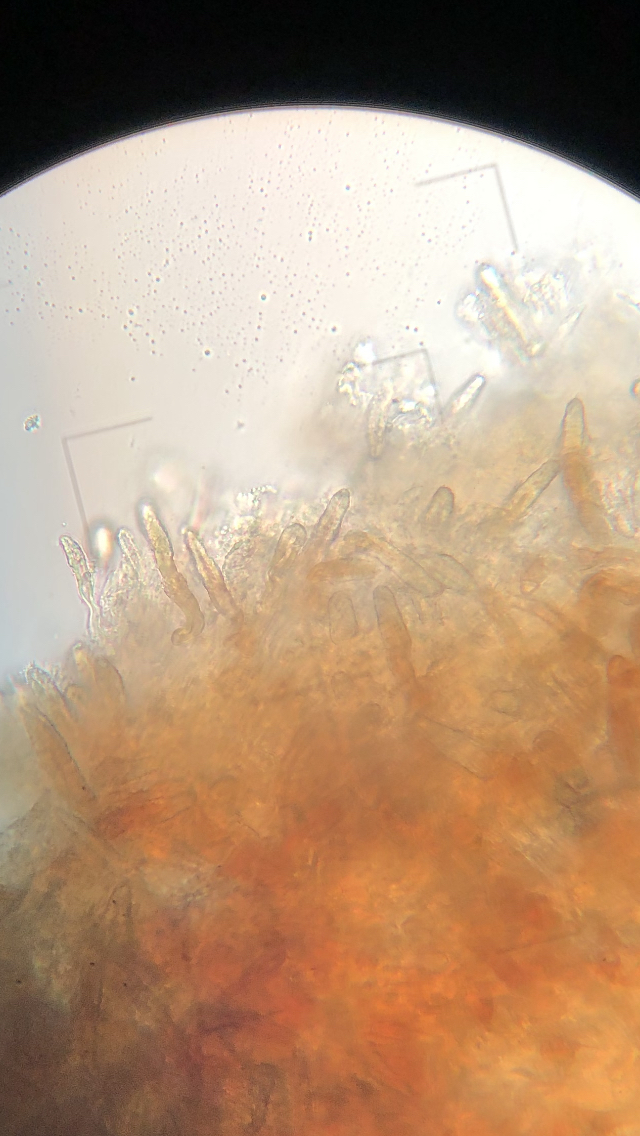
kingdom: Fungi
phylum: Basidiomycota
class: Agaricomycetes
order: Russulales
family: Echinodontiaceae
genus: Amylostereum
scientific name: Amylostereum laevigatum
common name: ene-lædersvamp
